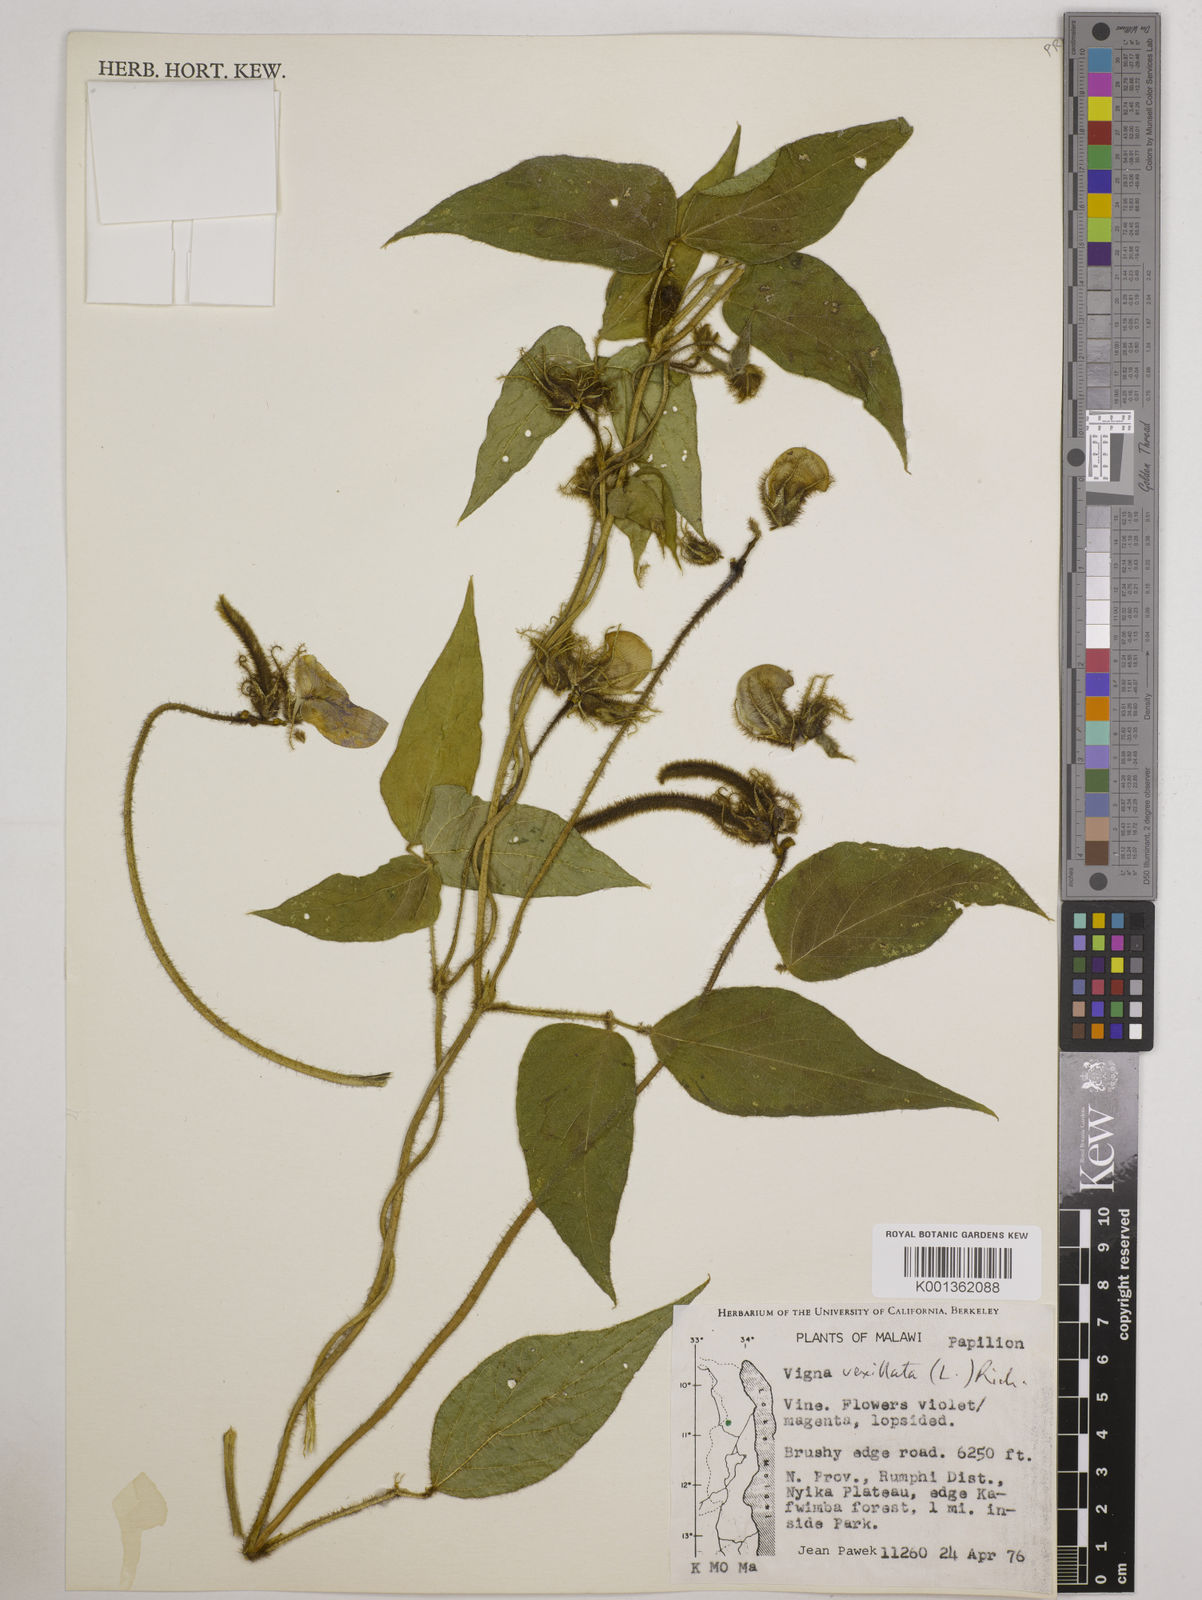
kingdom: Plantae
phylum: Tracheophyta
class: Magnoliopsida
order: Fabales
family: Fabaceae
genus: Vigna
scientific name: Vigna vexillata
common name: Zombi pea
